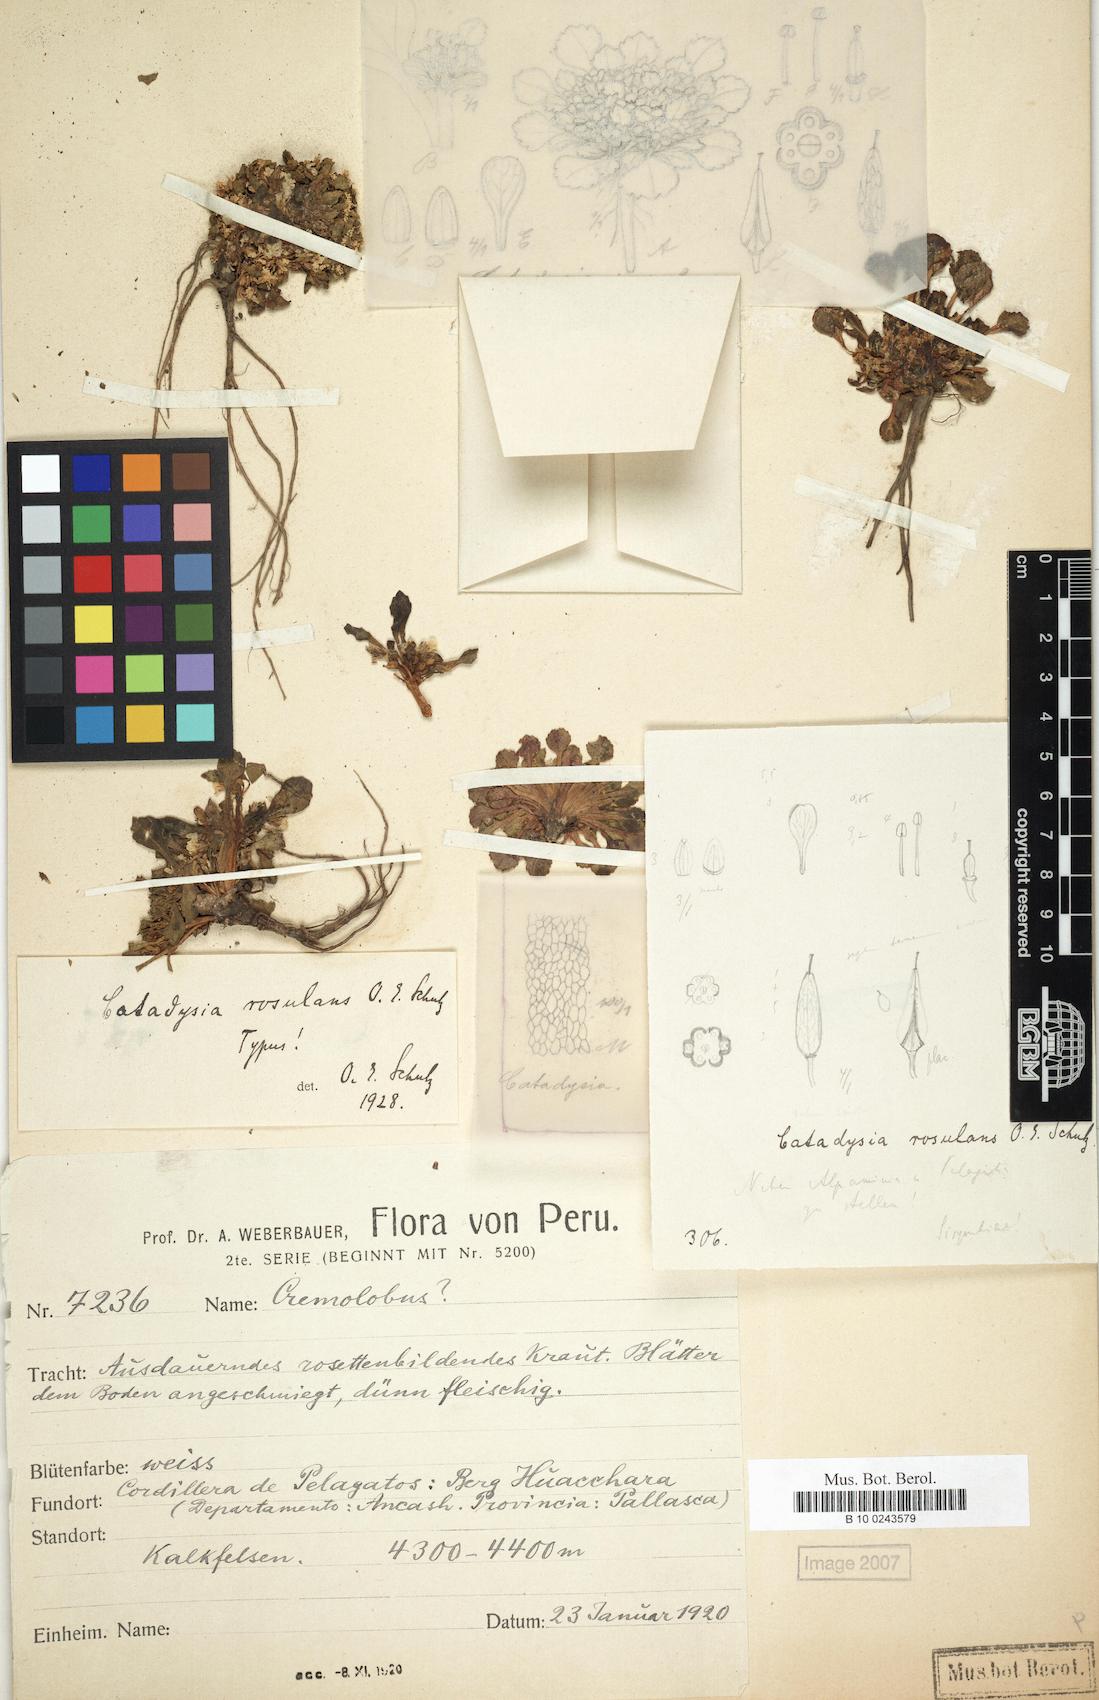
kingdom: Plantae
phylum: Tracheophyta
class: Magnoliopsida
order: Brassicales
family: Brassicaceae
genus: Weberbauera
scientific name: Weberbauera rosulans
